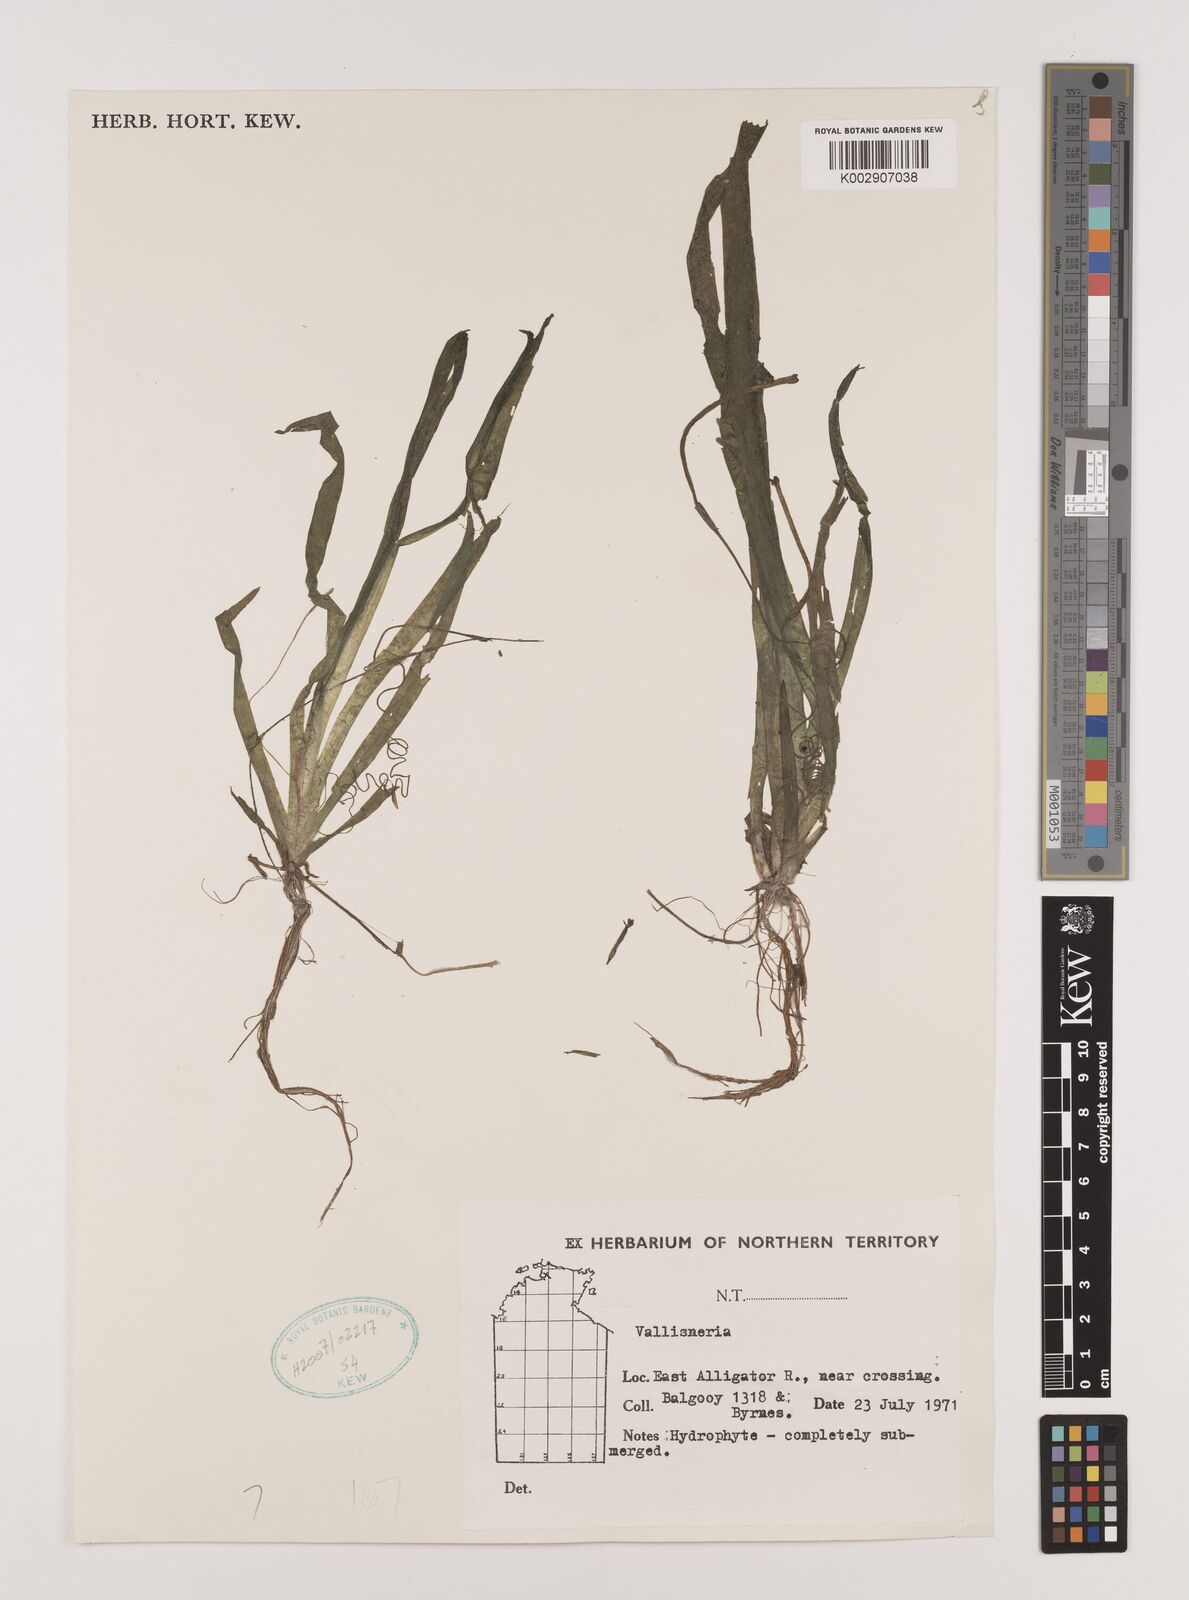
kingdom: Plantae
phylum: Tracheophyta
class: Liliopsida
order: Alismatales
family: Hydrocharitaceae
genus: Vallisneria
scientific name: Vallisneria
